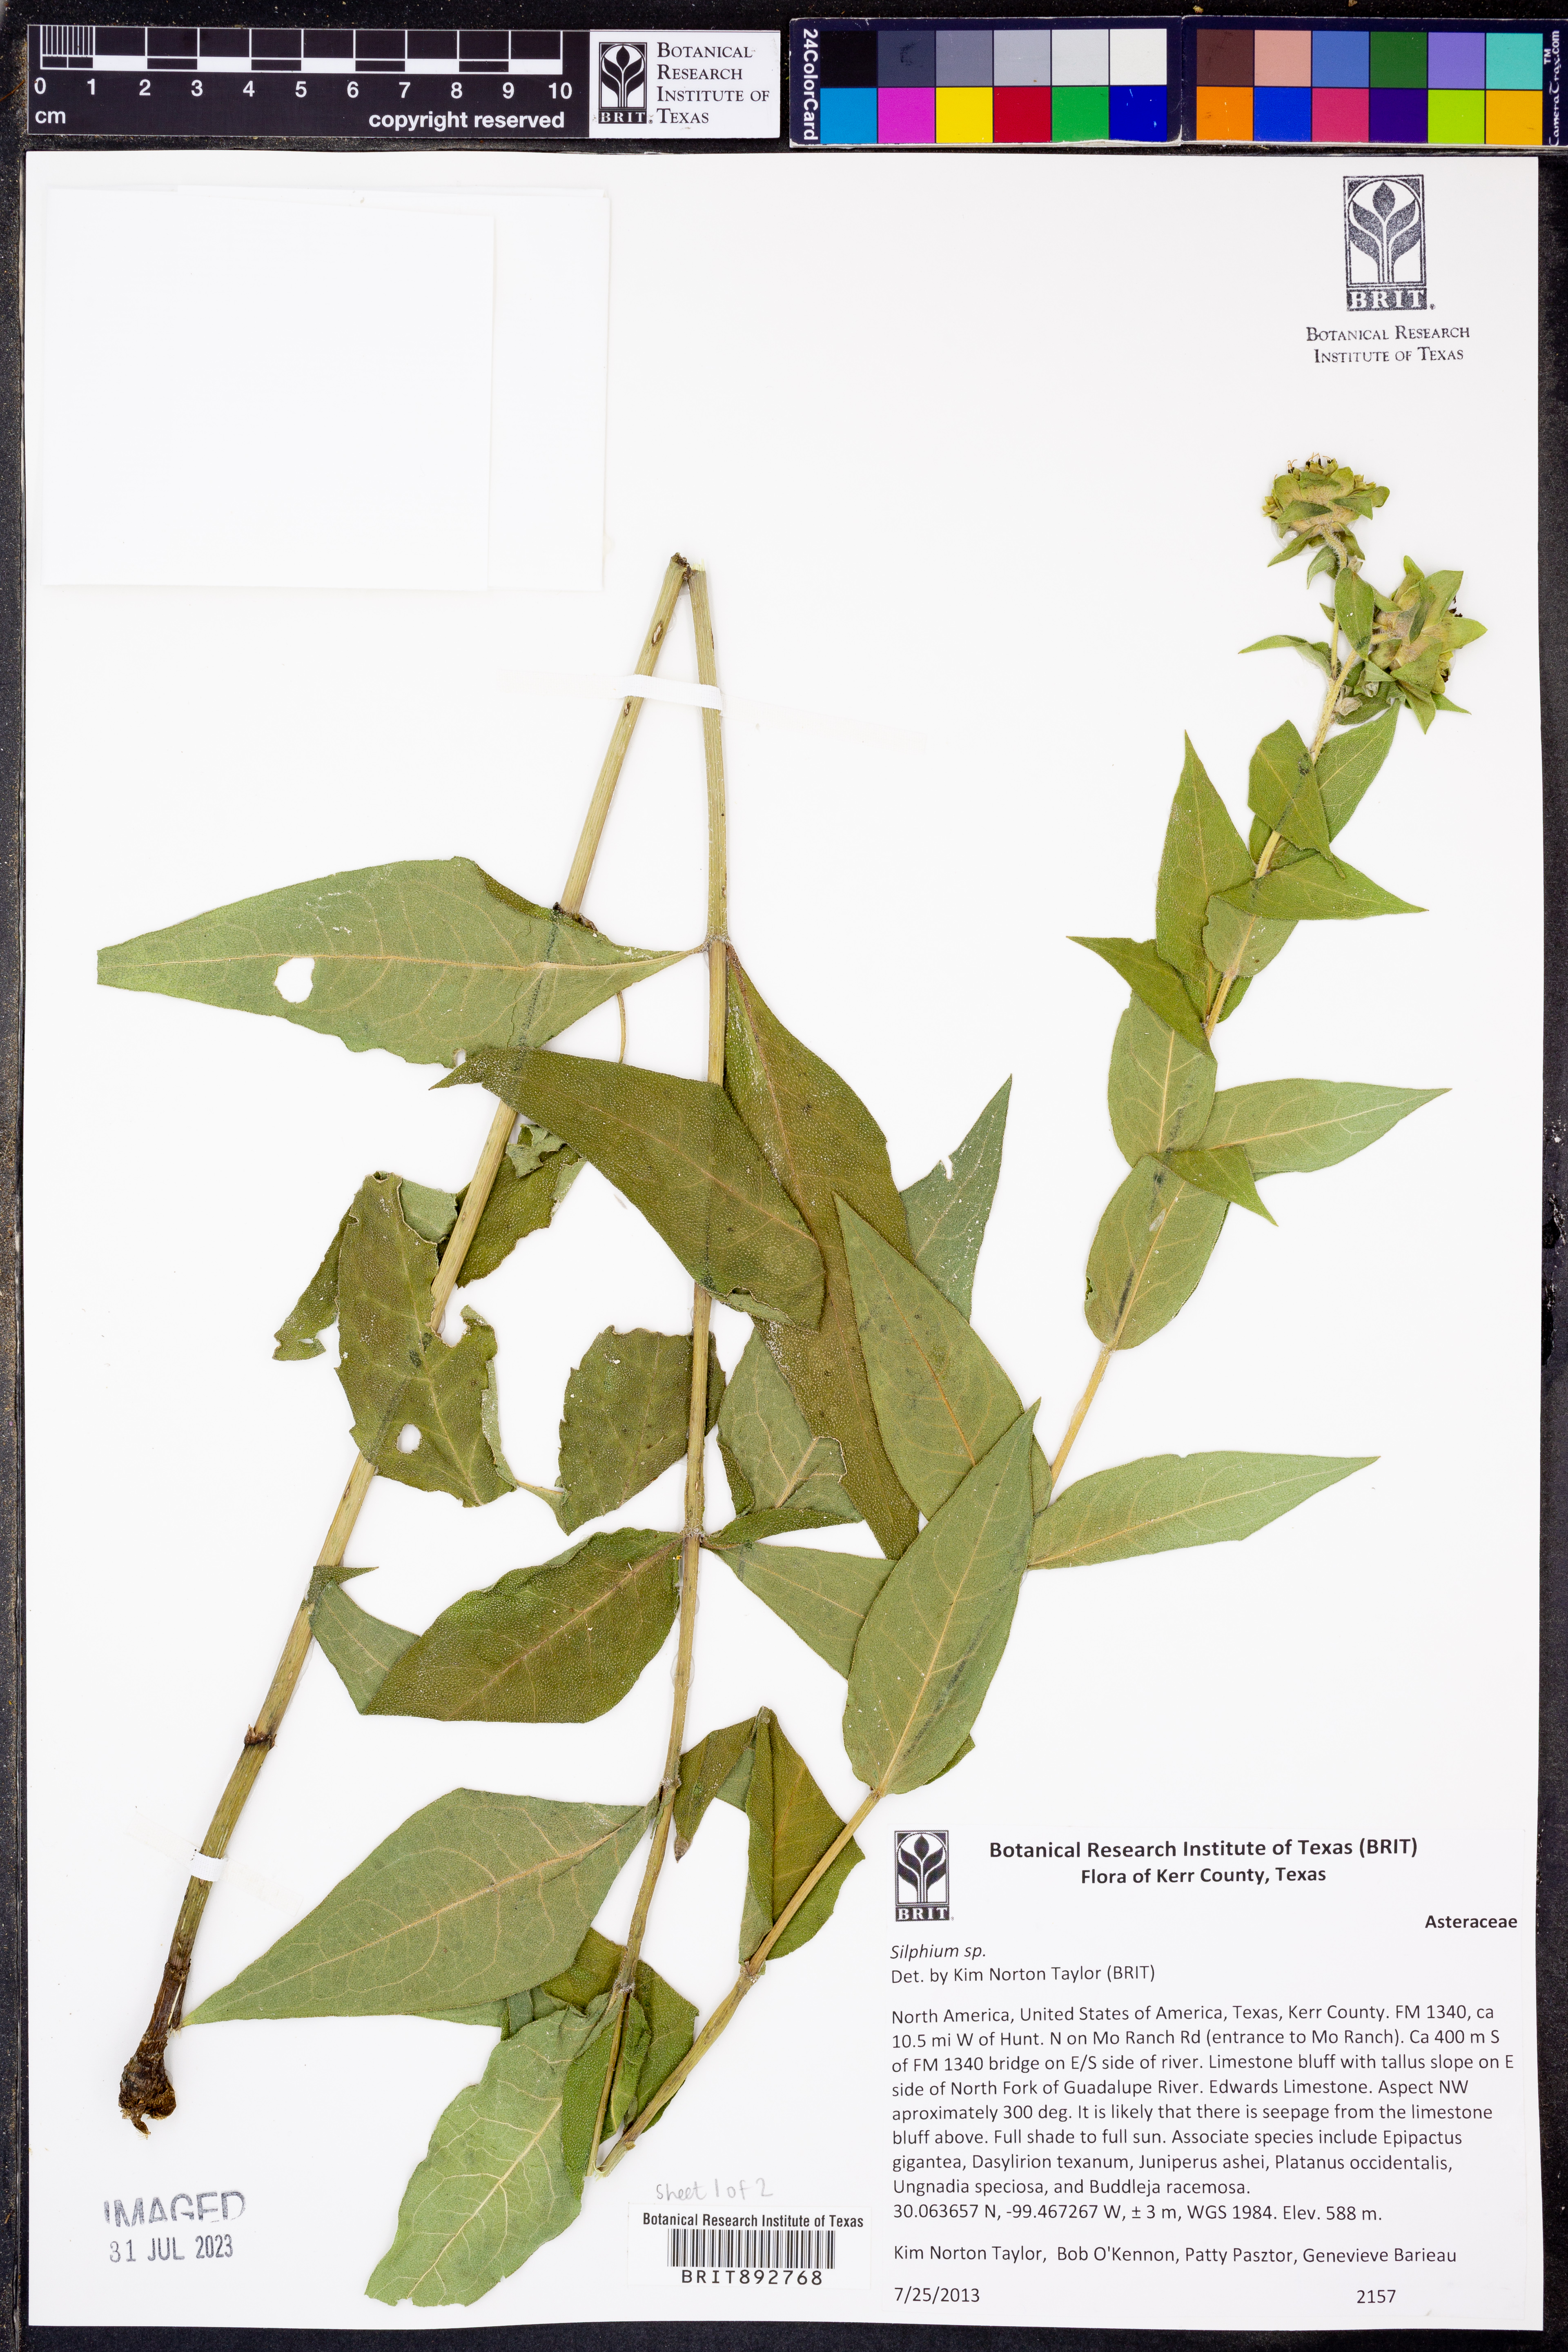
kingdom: Plantae
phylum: Tracheophyta
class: Magnoliopsida
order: Asterales
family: Asteraceae
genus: Silphium
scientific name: Silphium
